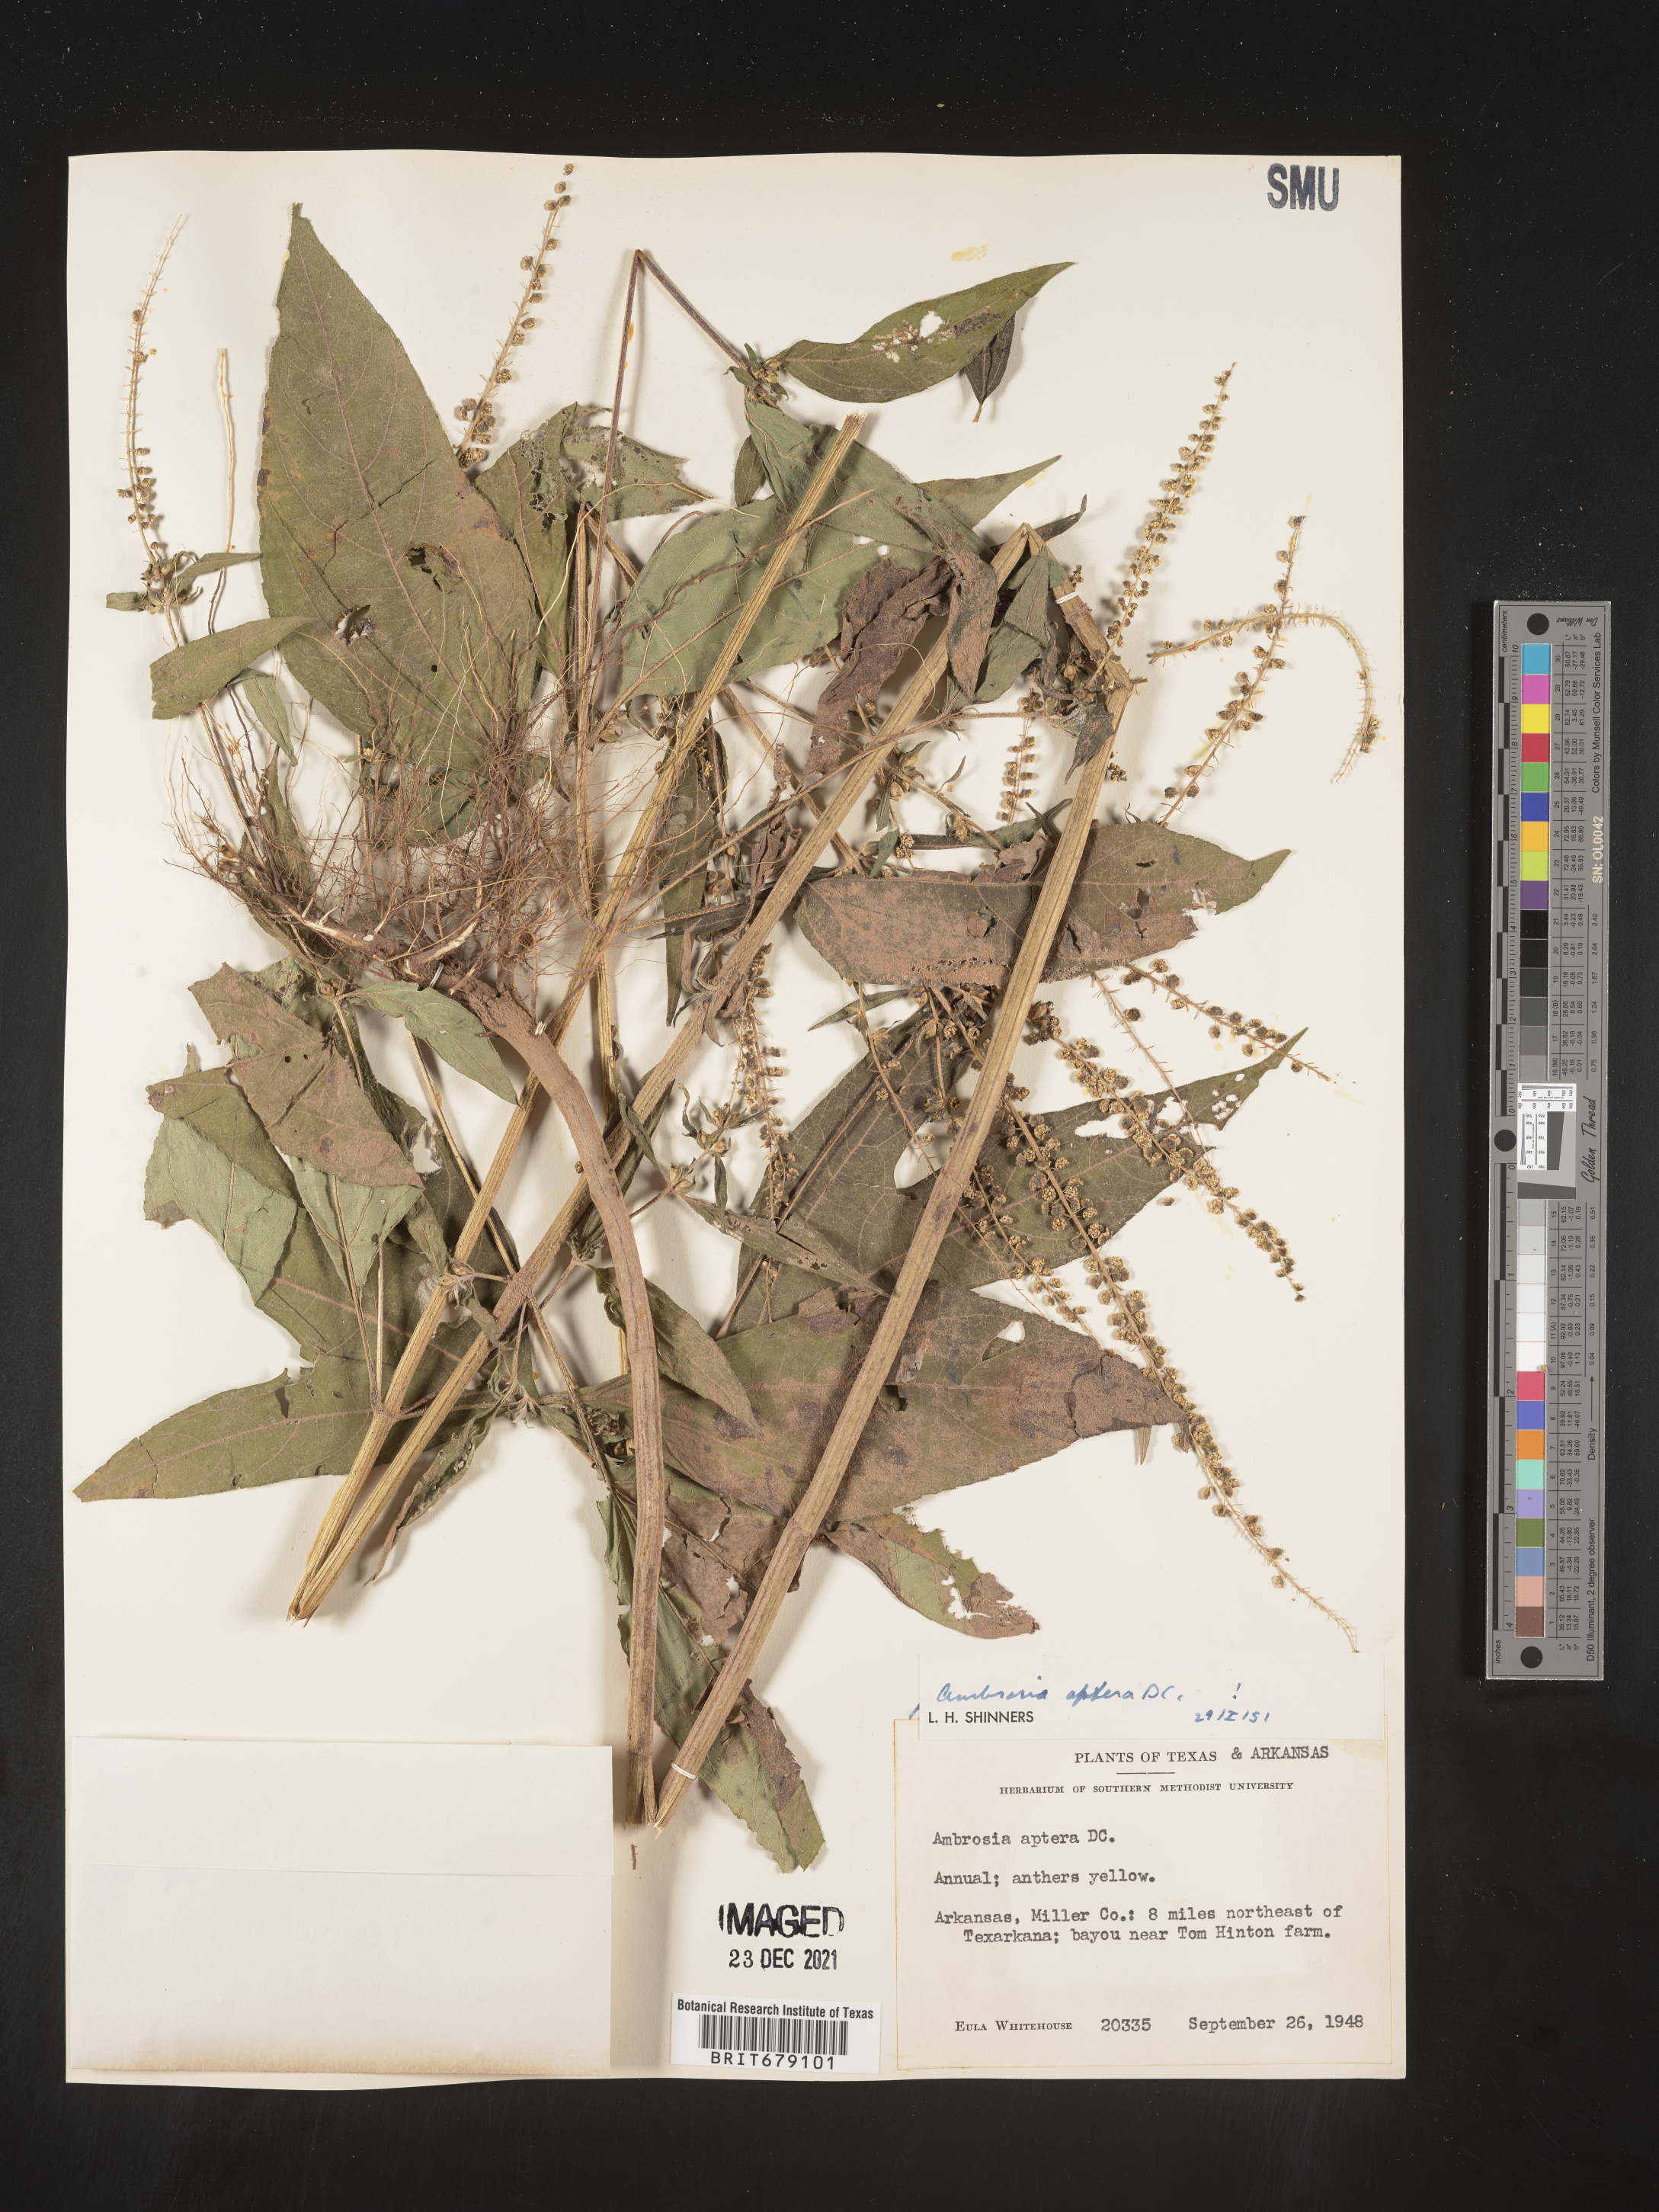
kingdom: Plantae
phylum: Tracheophyta
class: Magnoliopsida
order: Asterales
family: Asteraceae
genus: Ambrosia
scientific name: Ambrosia trifida
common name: Giant ragweed
